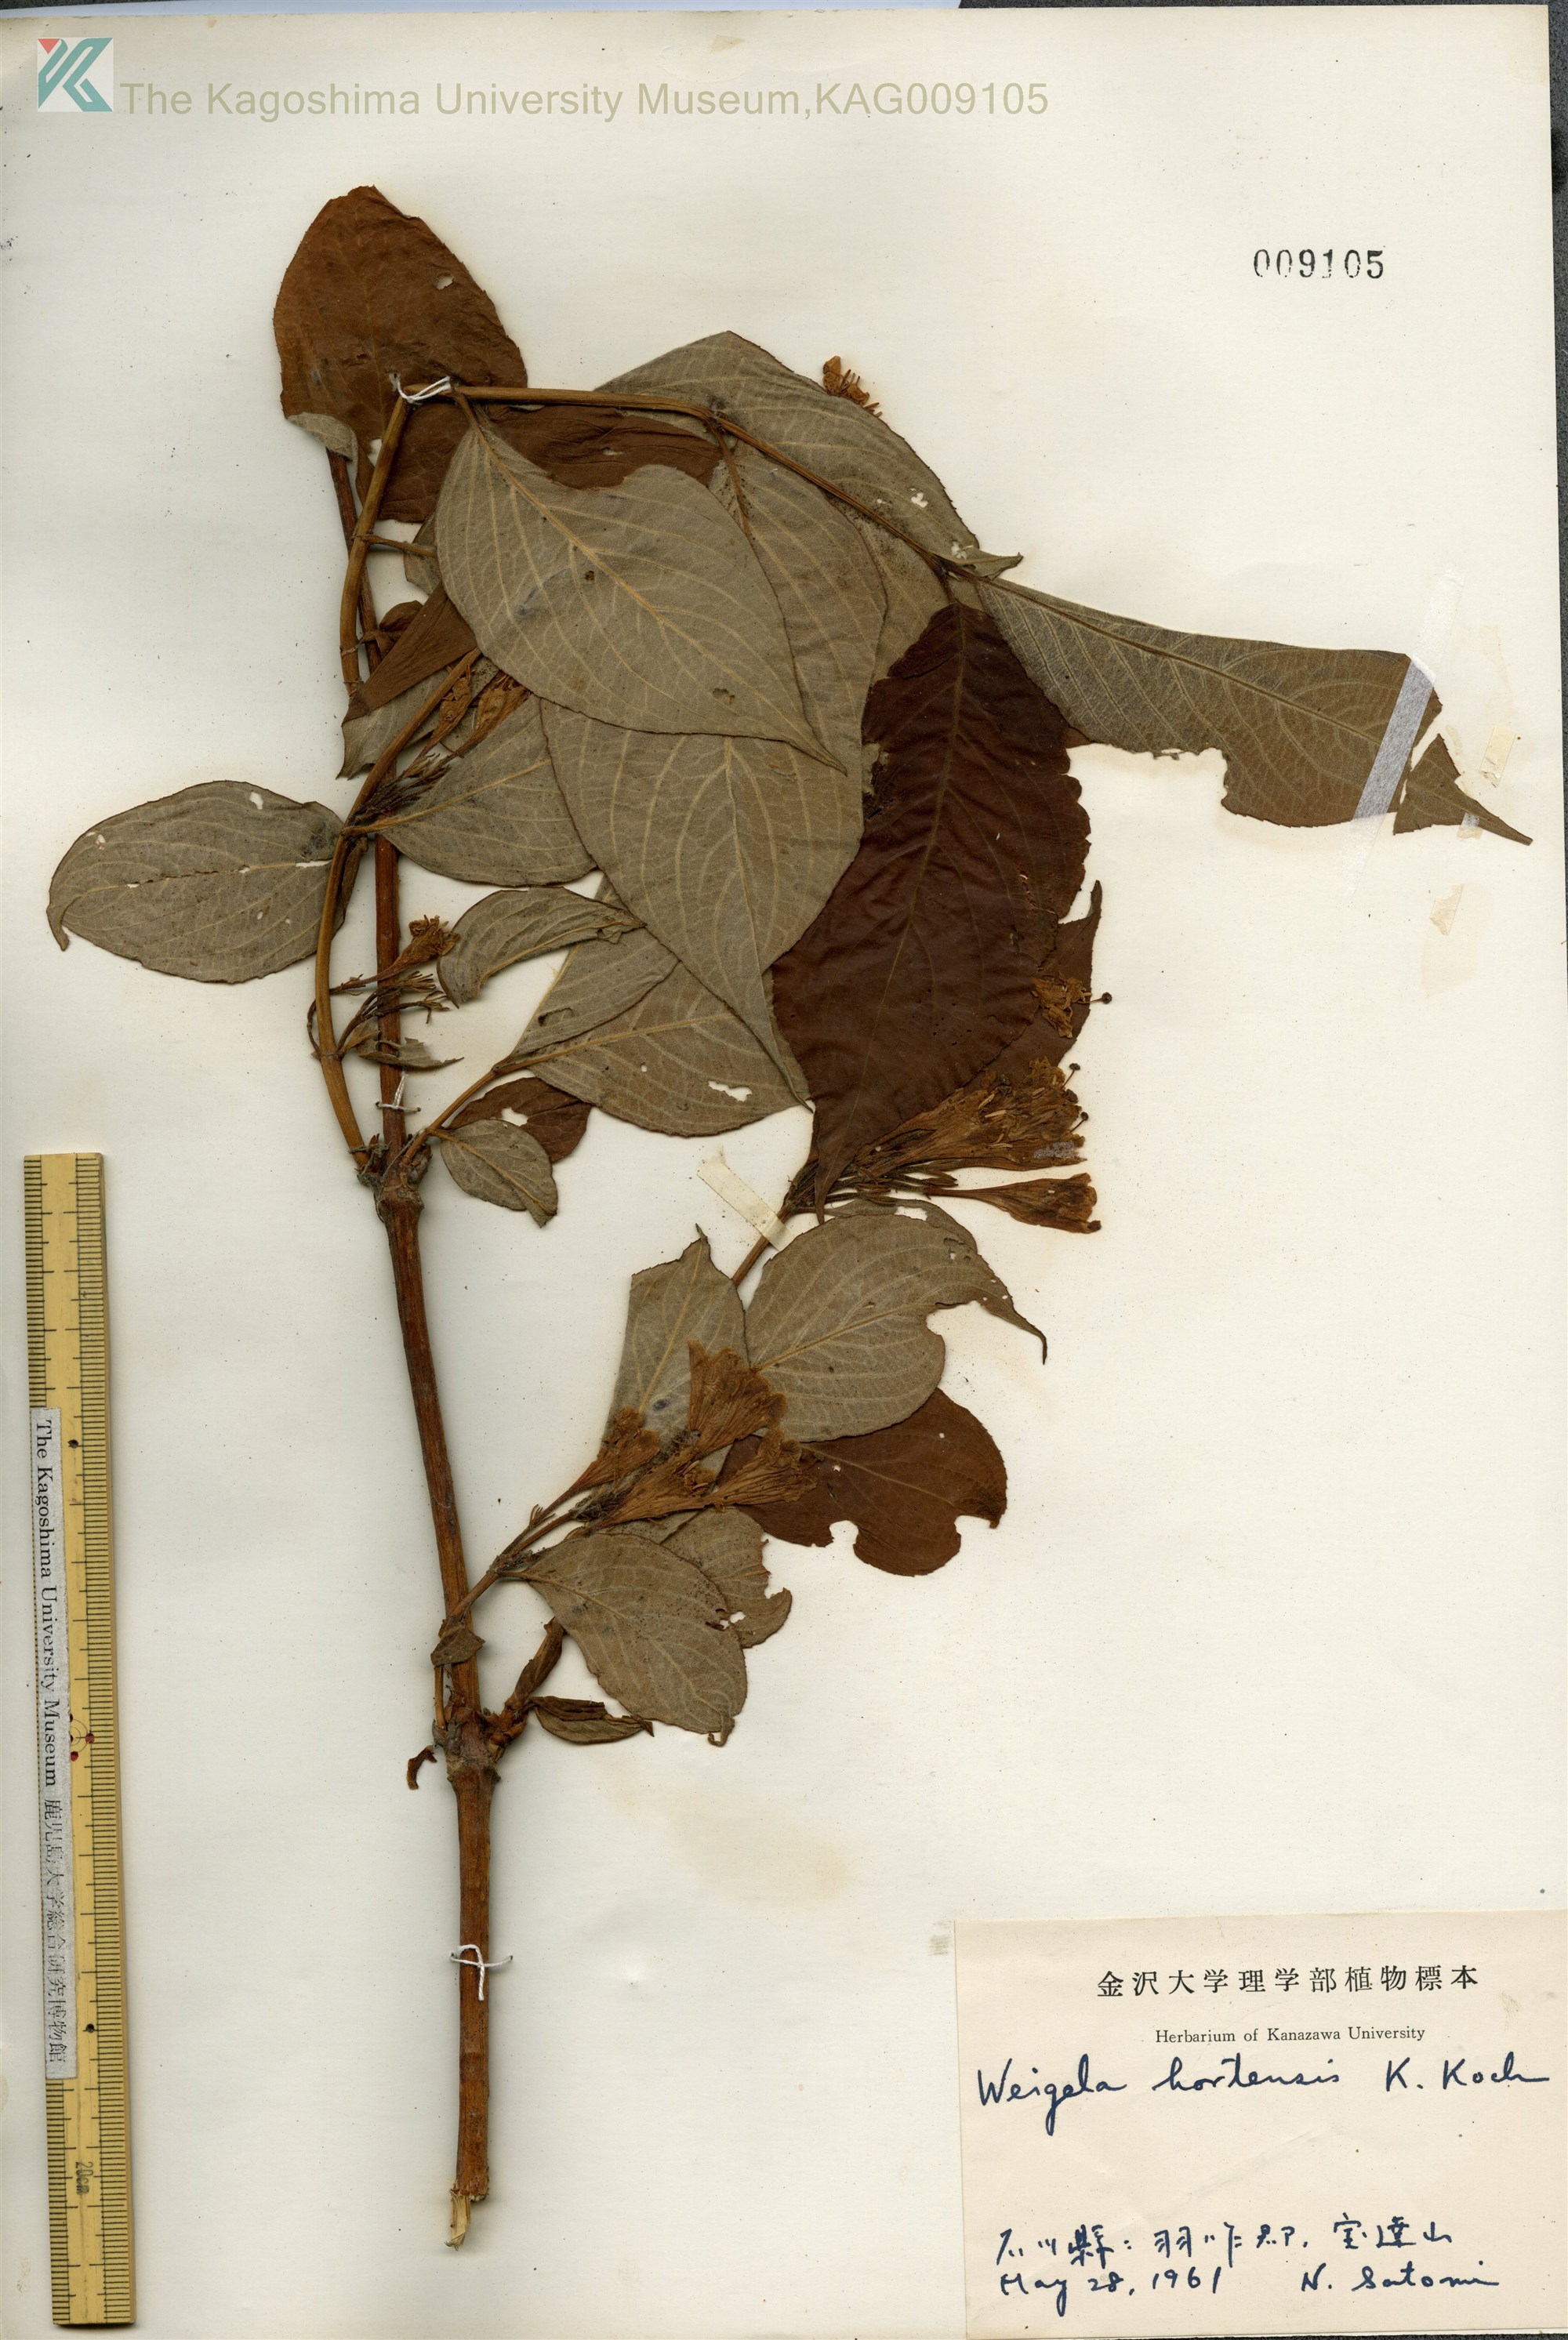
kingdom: Plantae
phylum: Tracheophyta
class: Magnoliopsida
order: Dipsacales
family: Caprifoliaceae
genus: Weigela
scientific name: Weigela hortensis
